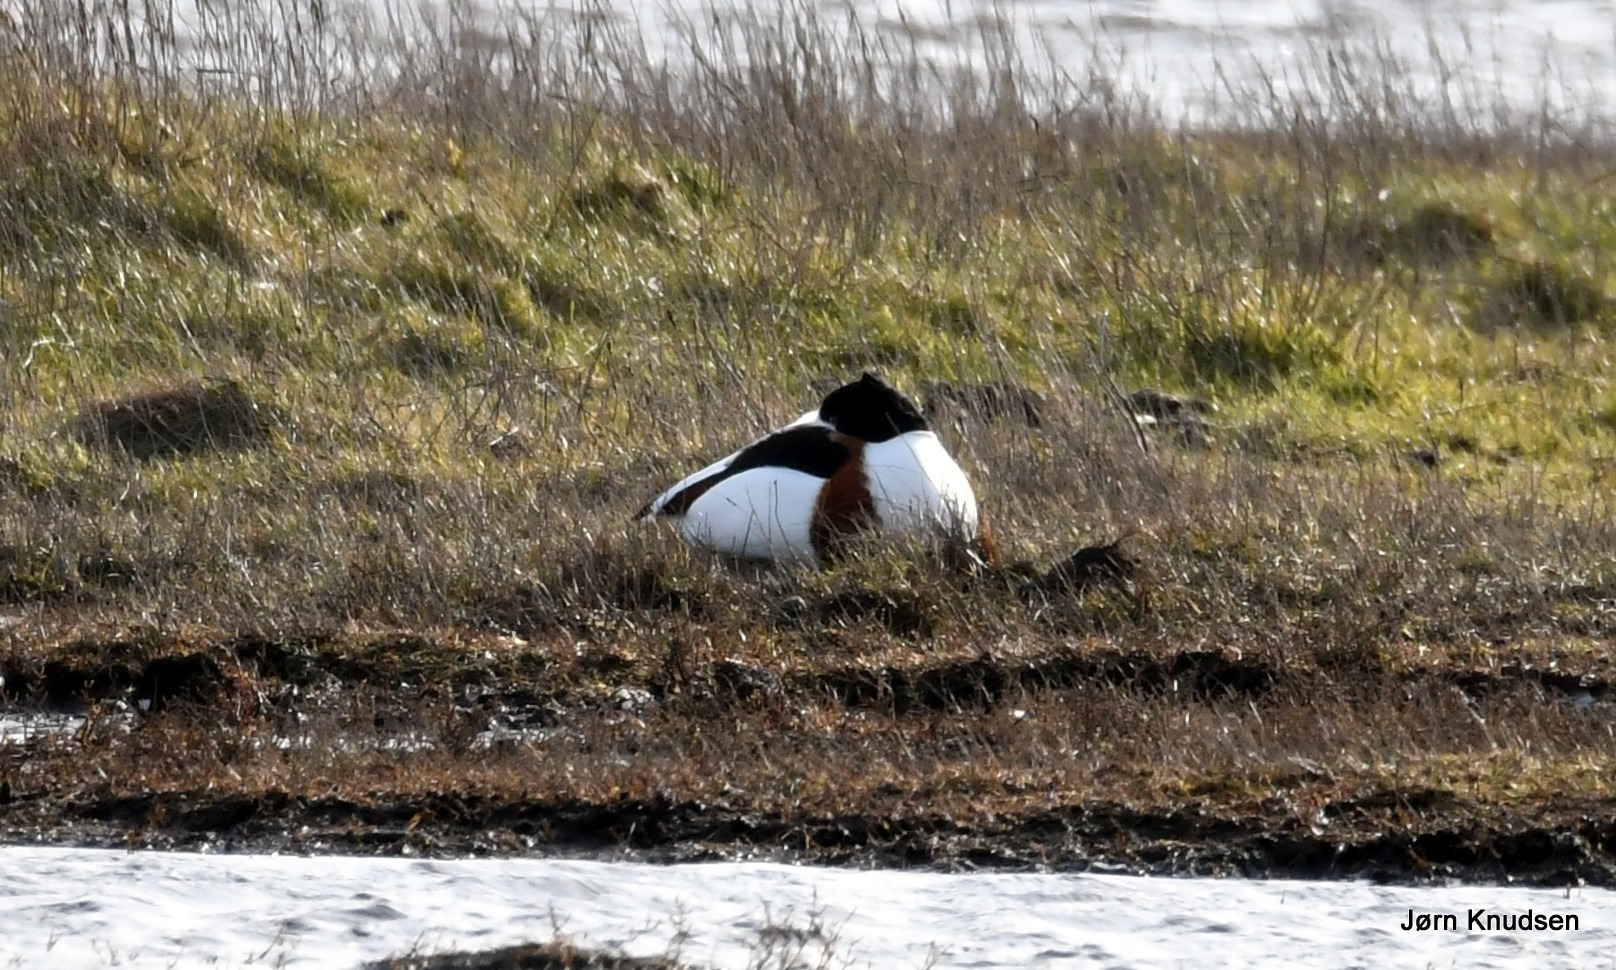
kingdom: Animalia
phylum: Chordata
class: Aves
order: Anseriformes
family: Anatidae
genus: Tadorna
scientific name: Tadorna tadorna
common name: Gravand
